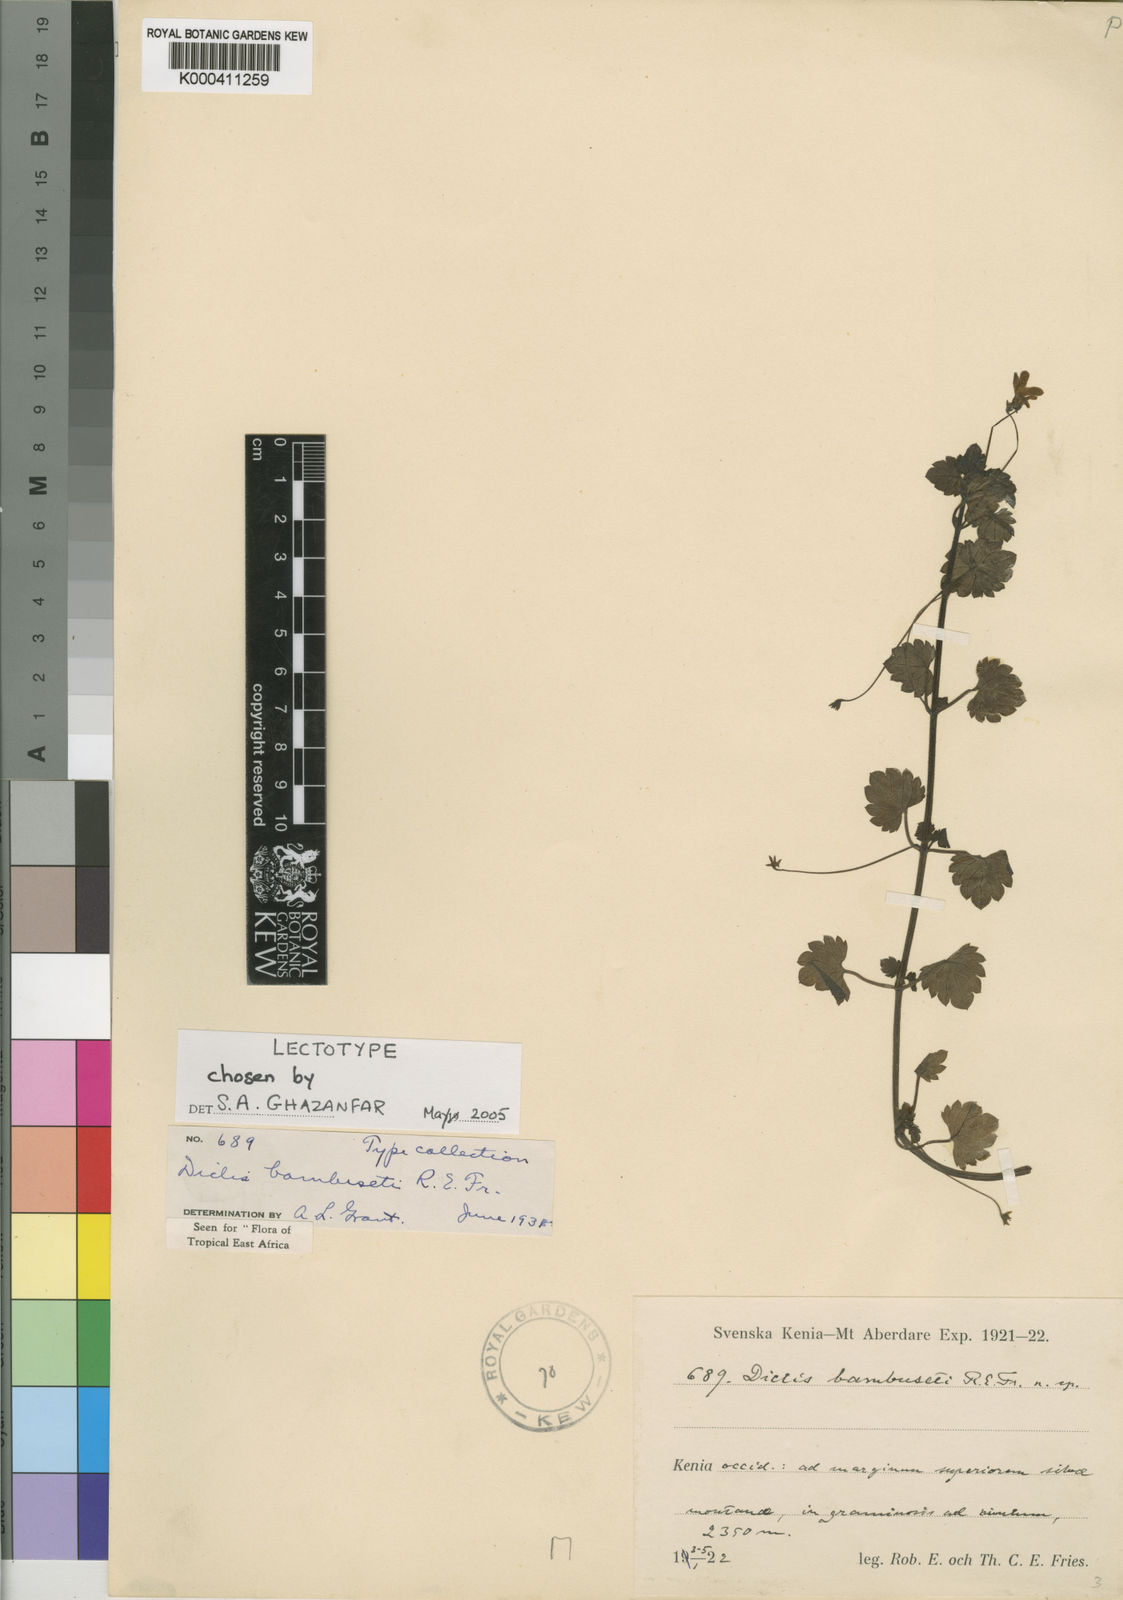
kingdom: Plantae
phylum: Tracheophyta
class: Magnoliopsida
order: Lamiales
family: Scrophulariaceae
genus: Diclis
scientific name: Diclis bambuseti
